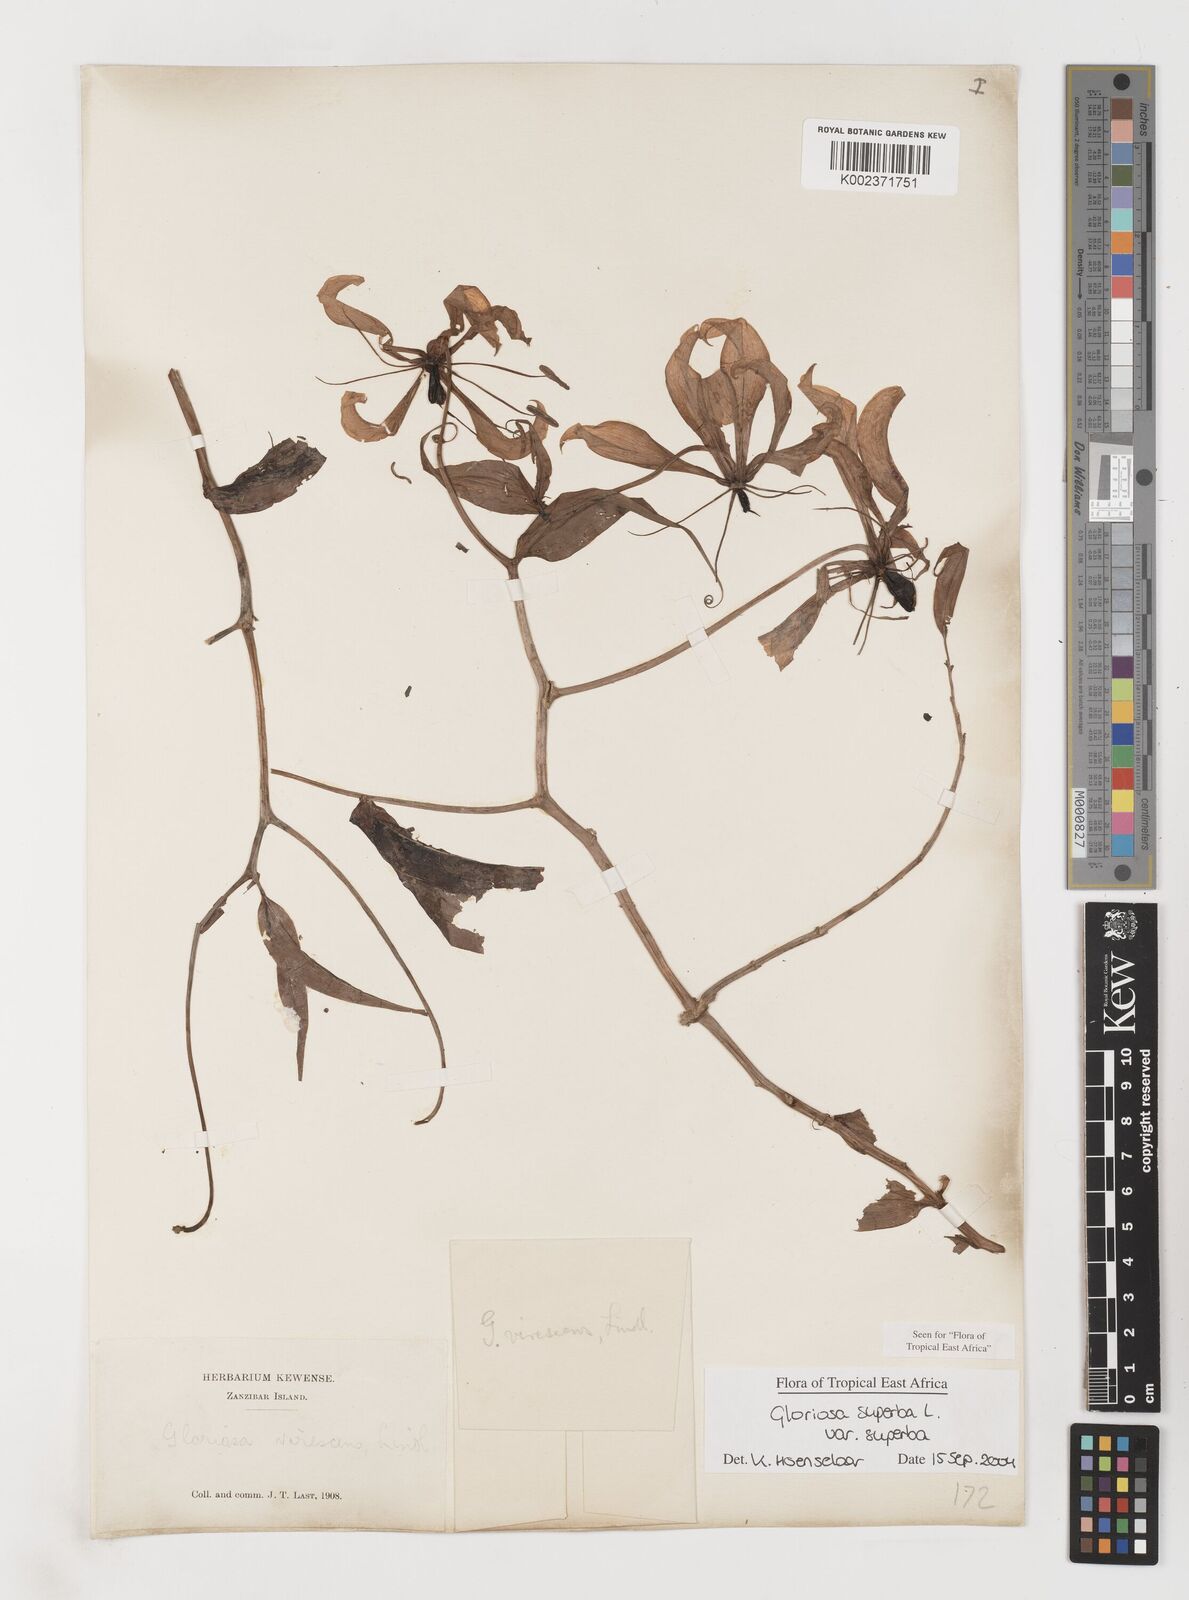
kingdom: Plantae
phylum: Tracheophyta
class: Liliopsida
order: Liliales
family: Colchicaceae
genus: Gloriosa
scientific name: Gloriosa simplex
